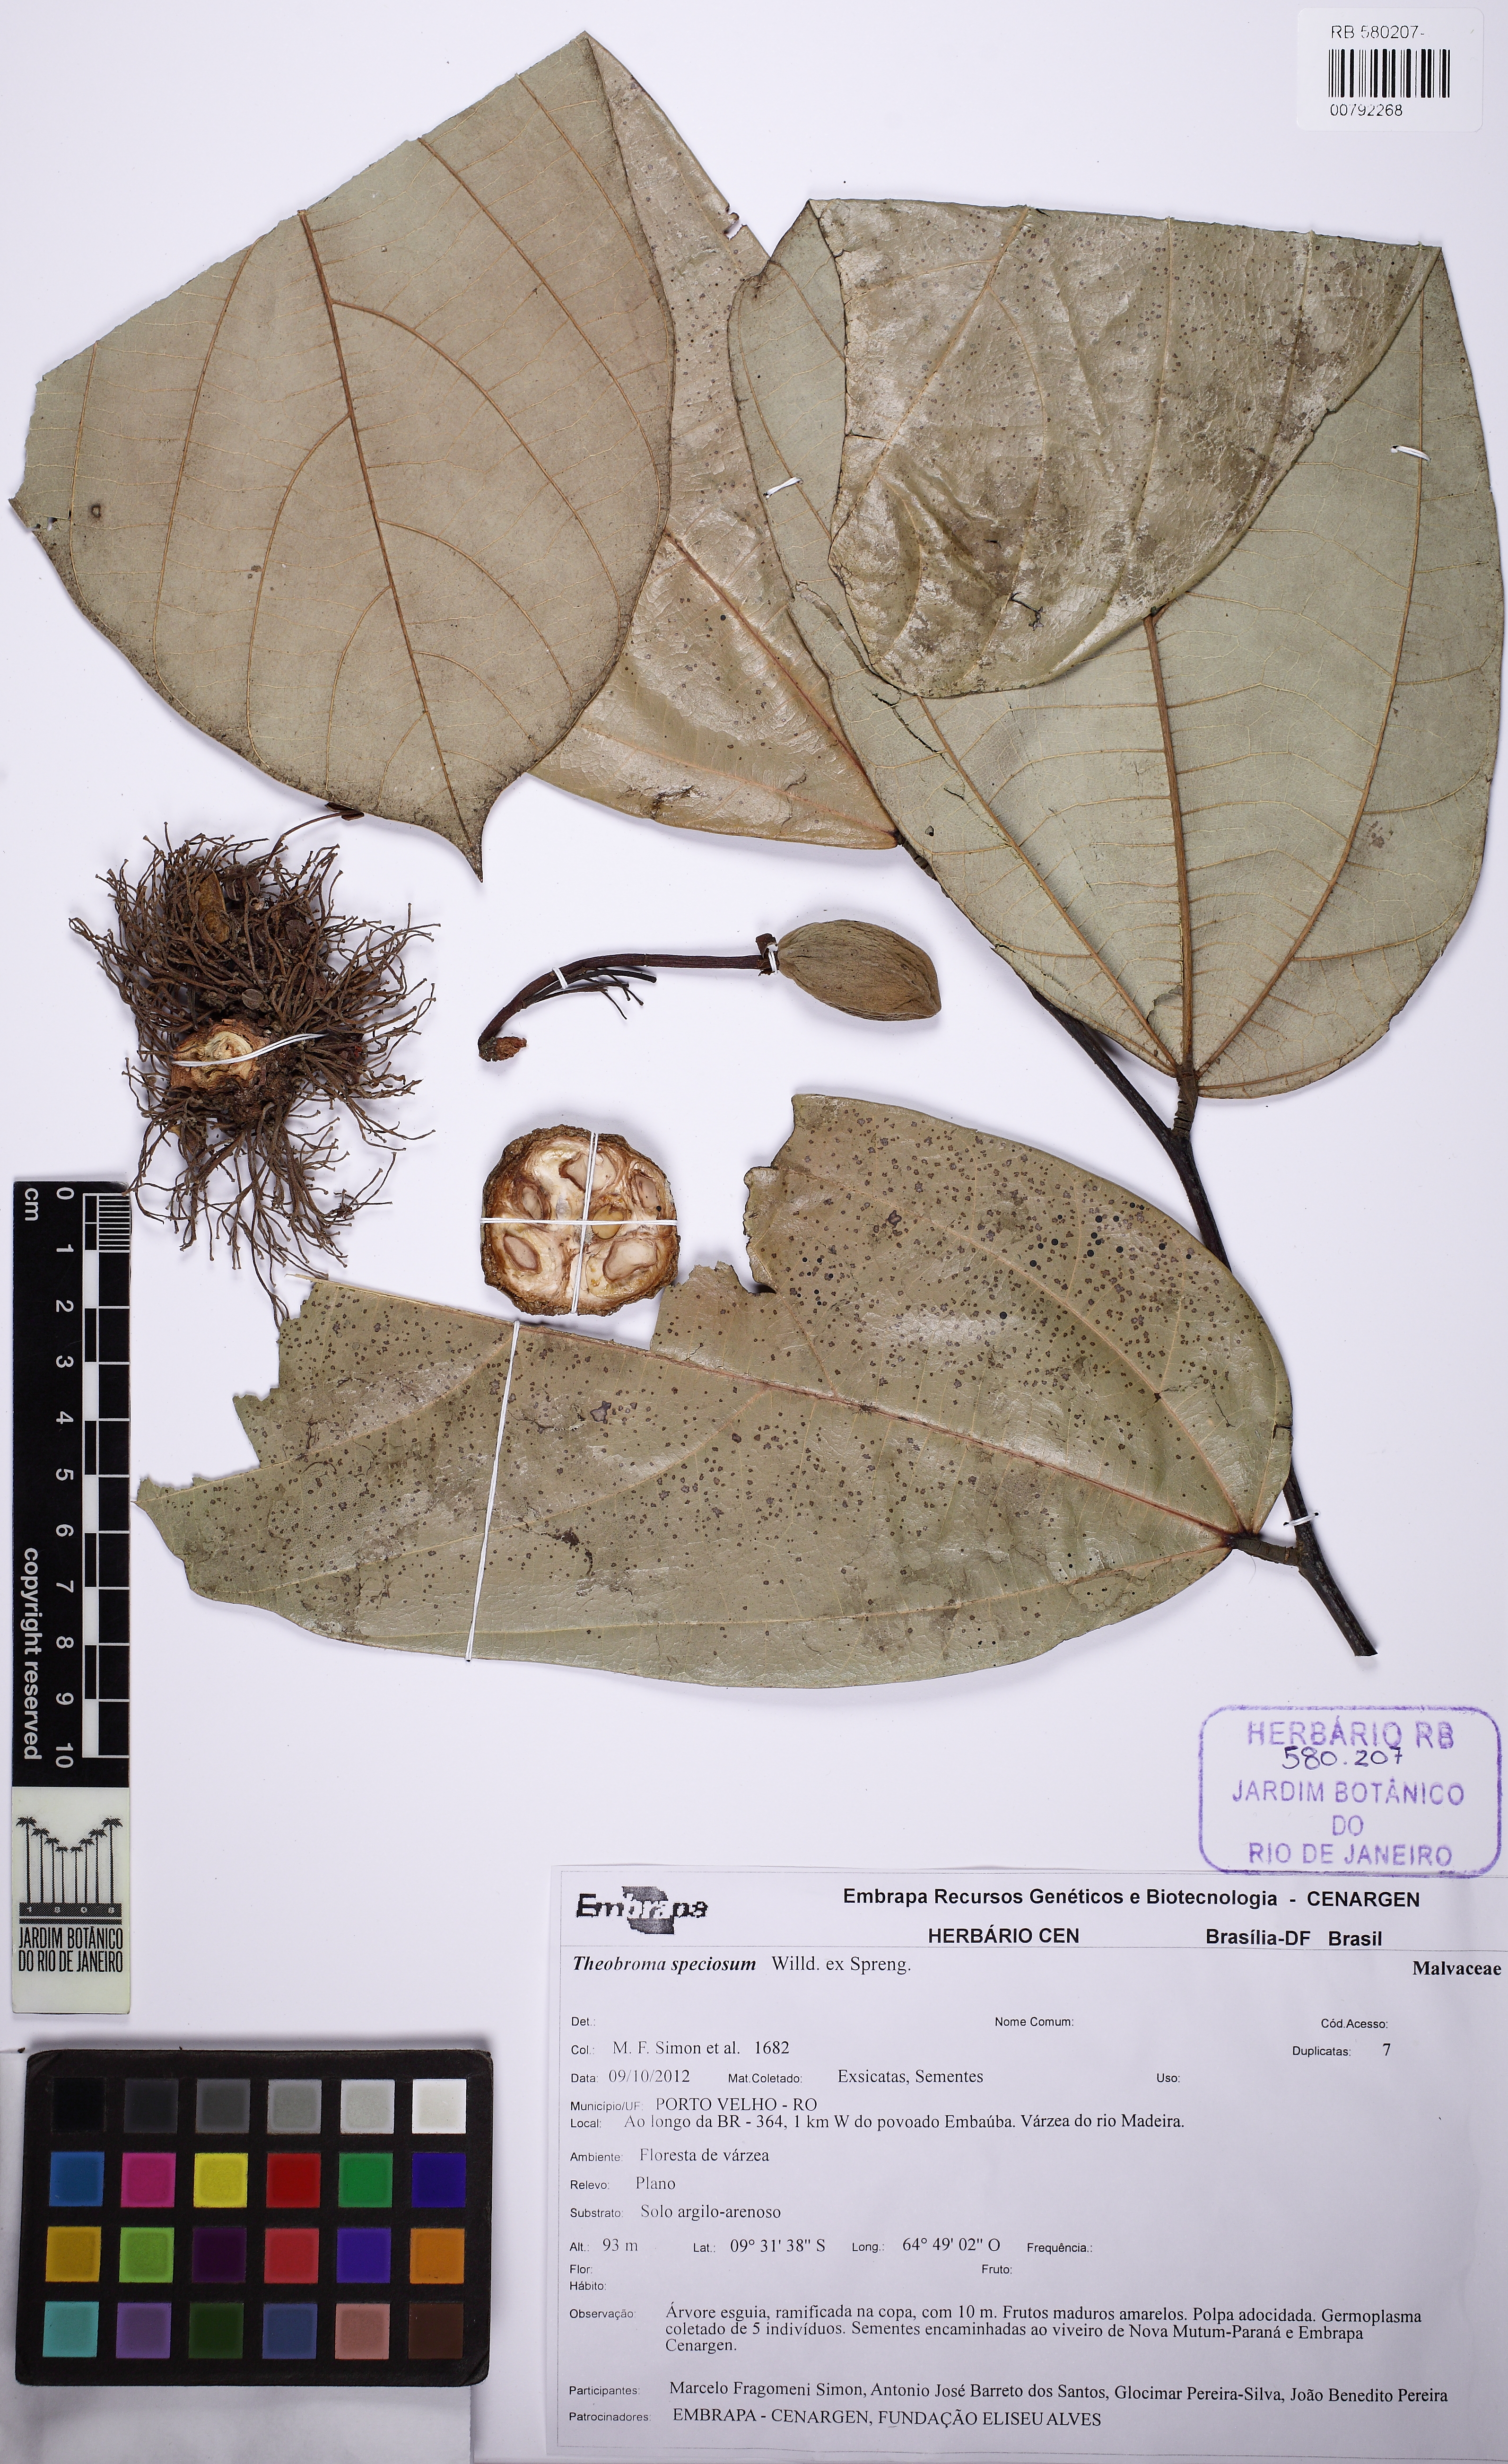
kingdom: Plantae
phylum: Tracheophyta
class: Magnoliopsida
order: Malvales
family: Malvaceae
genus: Theobroma
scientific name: Theobroma speciosum
